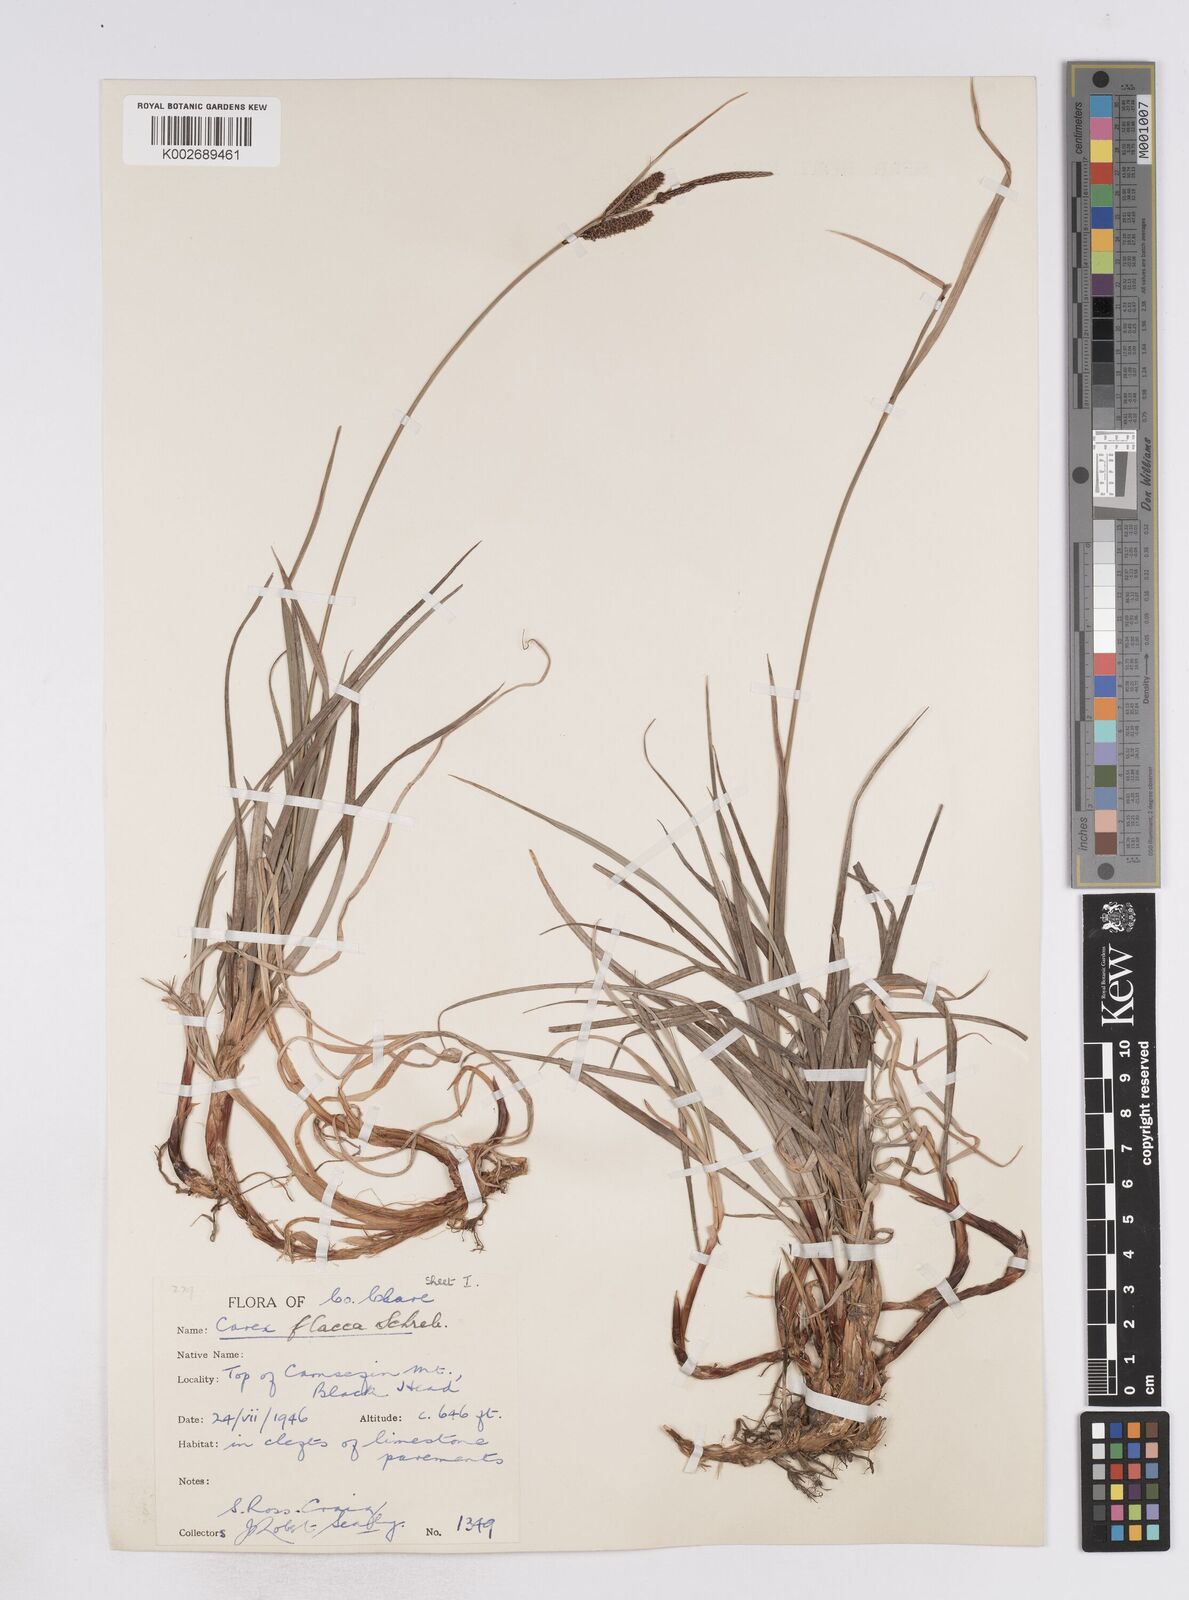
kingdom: Plantae
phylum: Tracheophyta
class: Liliopsida
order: Poales
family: Cyperaceae
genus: Carex
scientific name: Carex flacca
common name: Glaucous sedge
